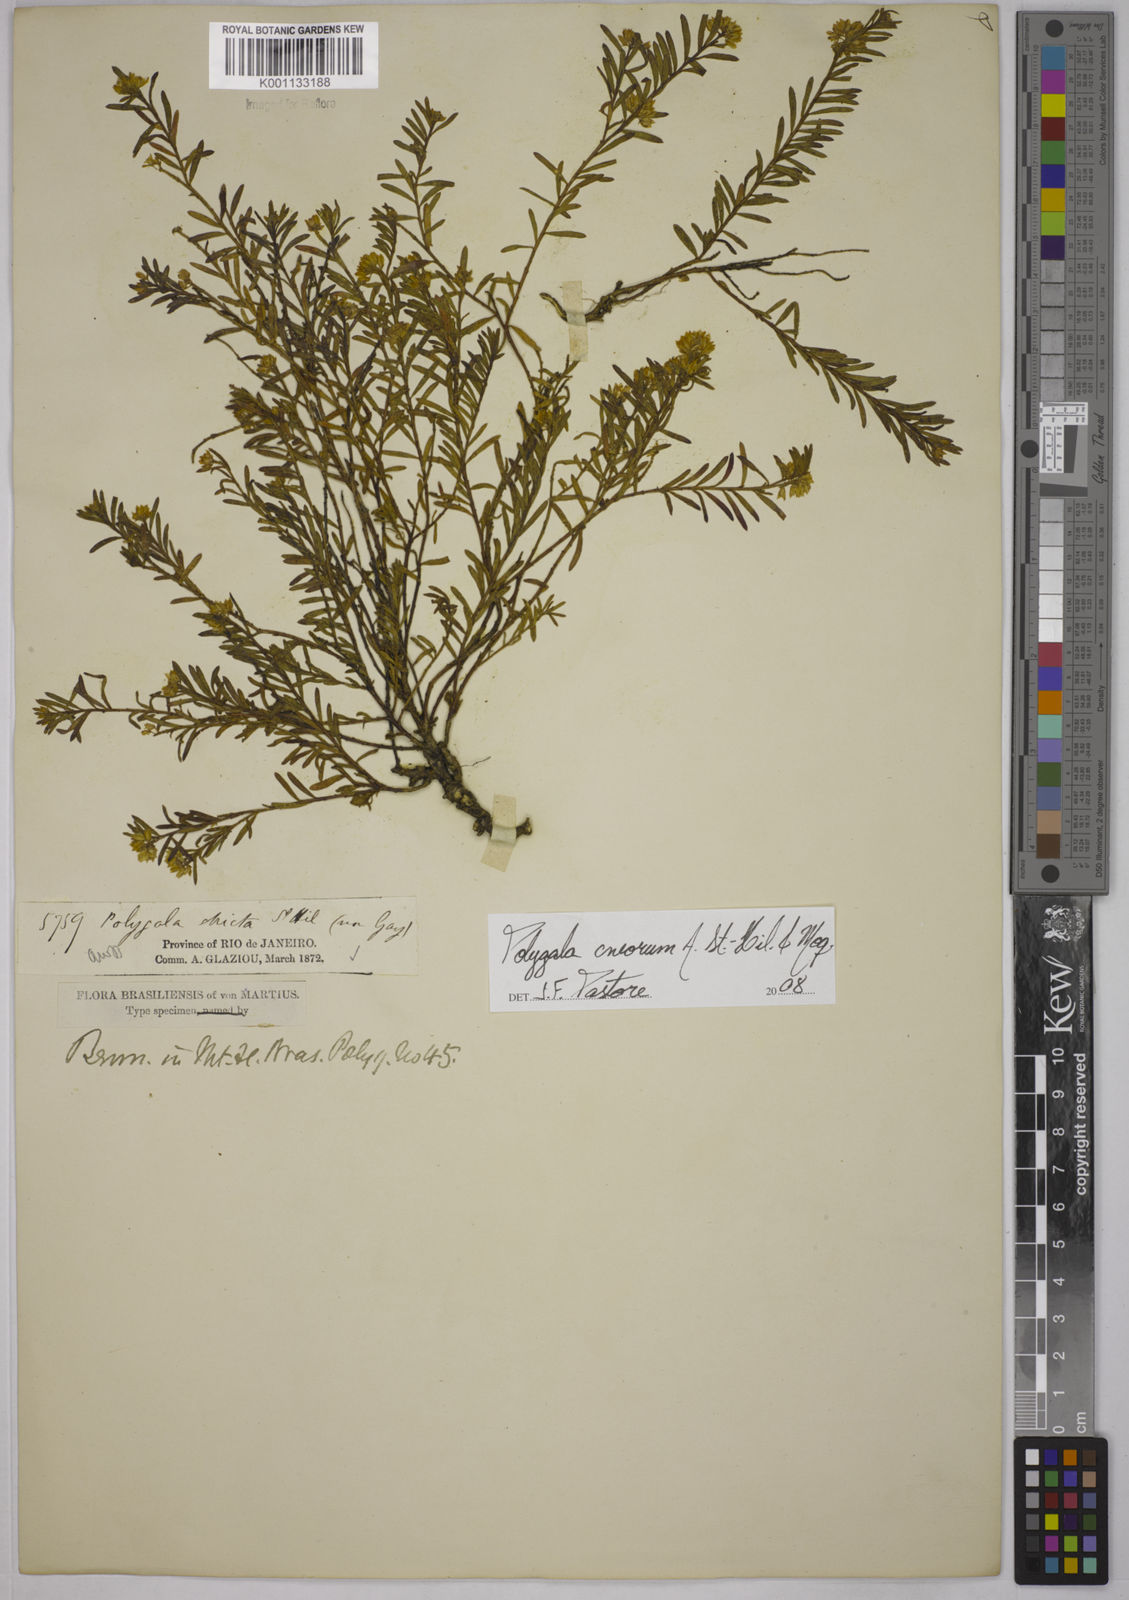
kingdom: Plantae
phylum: Tracheophyta
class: Magnoliopsida
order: Fabales
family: Polygalaceae
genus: Polygala
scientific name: Polygala cneorum
